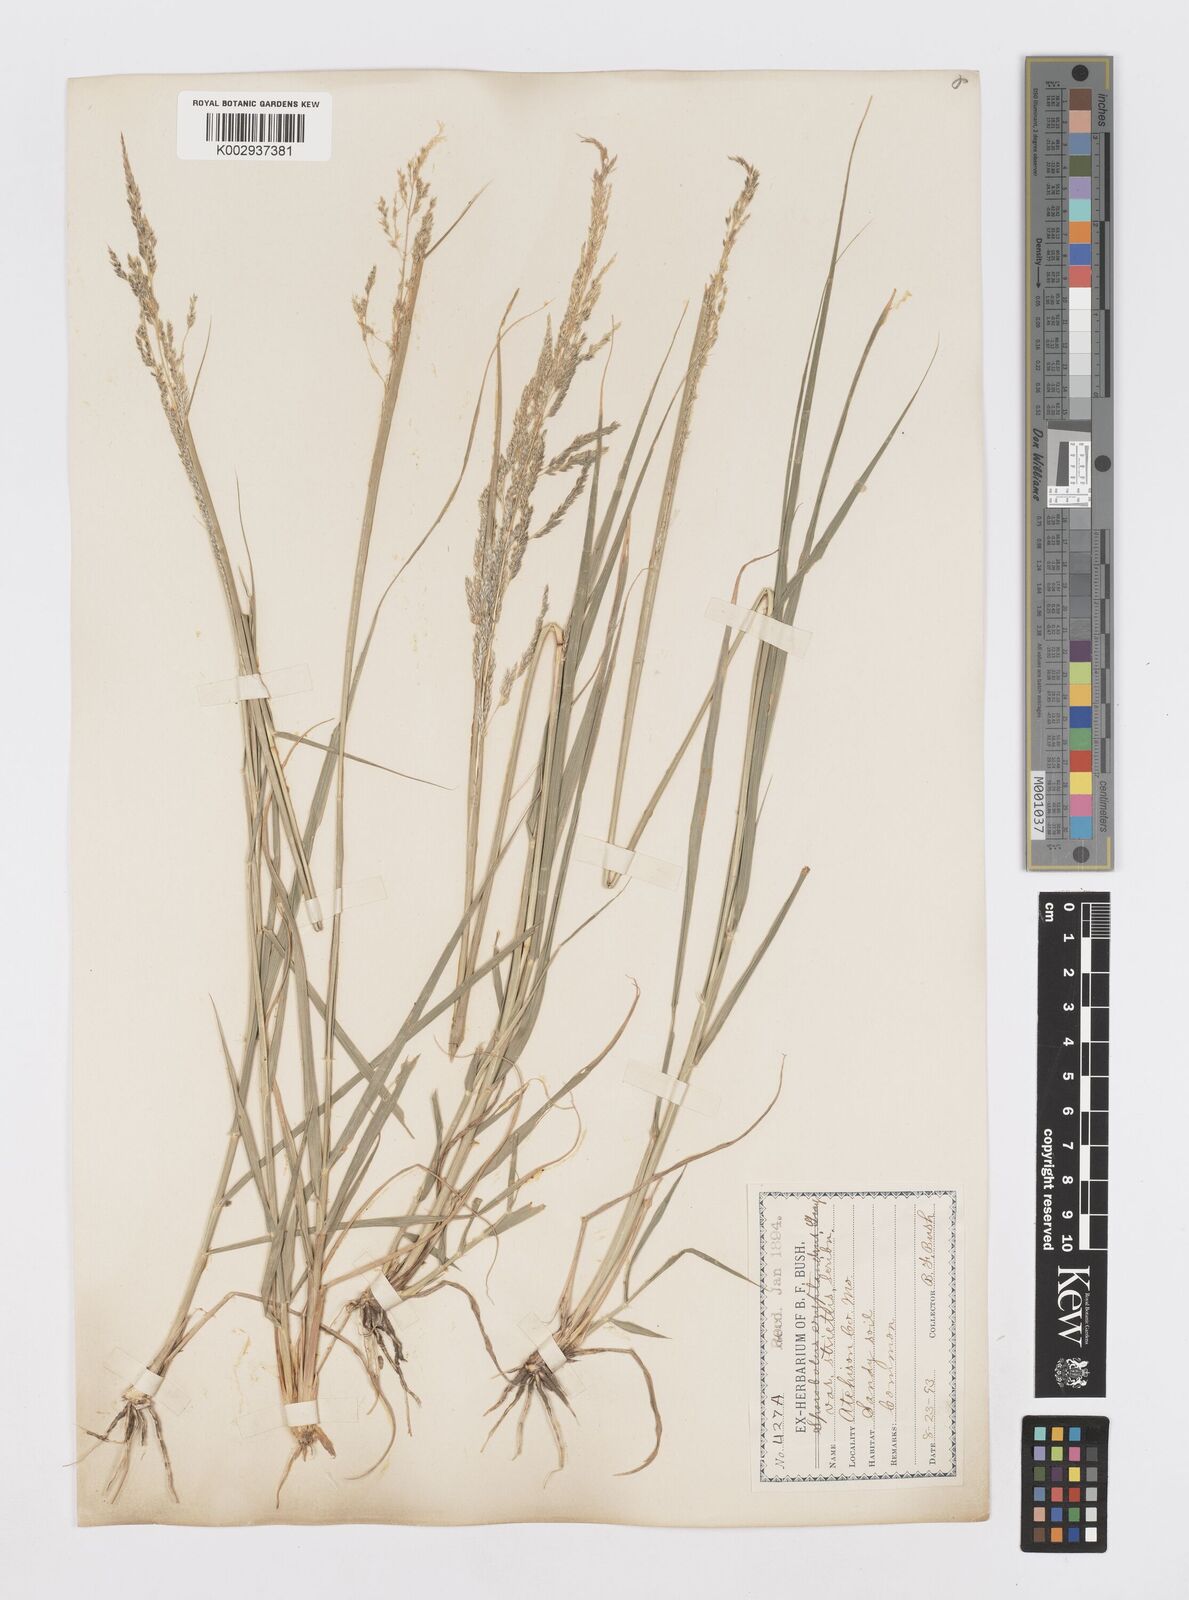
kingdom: Plantae
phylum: Tracheophyta
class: Liliopsida
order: Poales
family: Poaceae
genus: Sporobolus
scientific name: Sporobolus cryptandrus
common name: Sand dropseed
